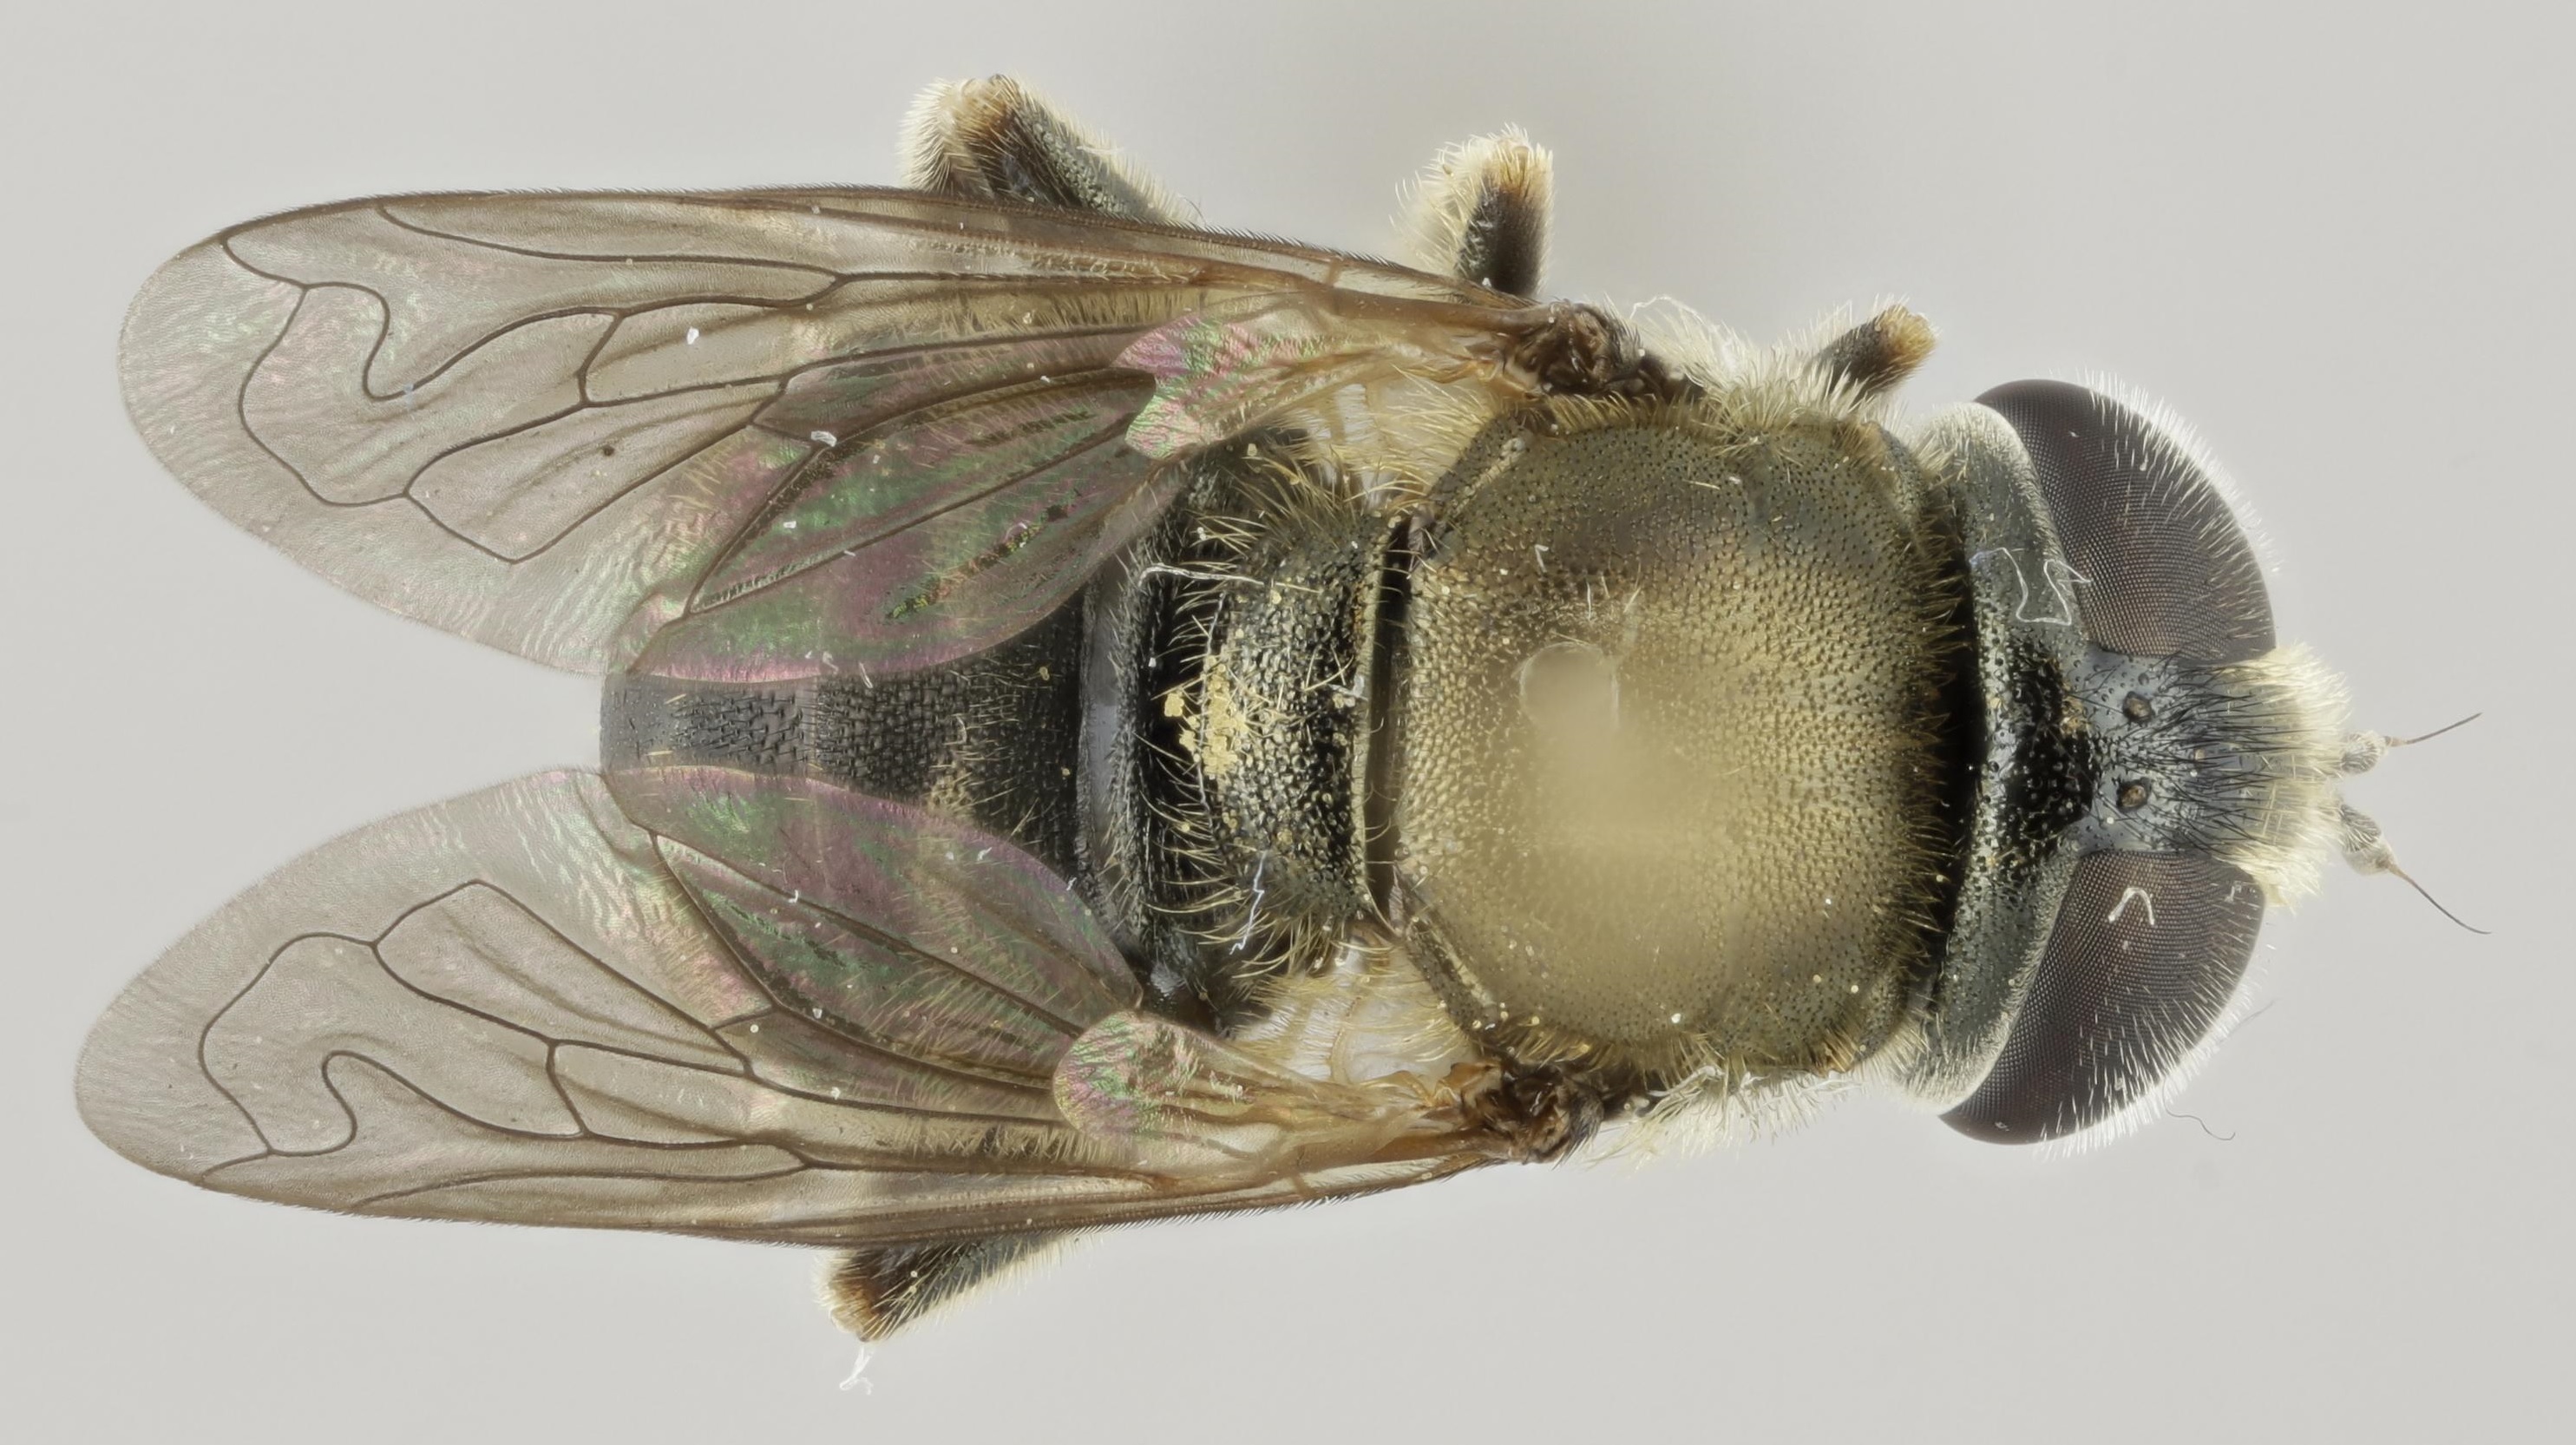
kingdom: Animalia
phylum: Arthropoda
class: Insecta
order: Diptera
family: Syrphidae
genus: Merodon
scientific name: Merodon funestus
